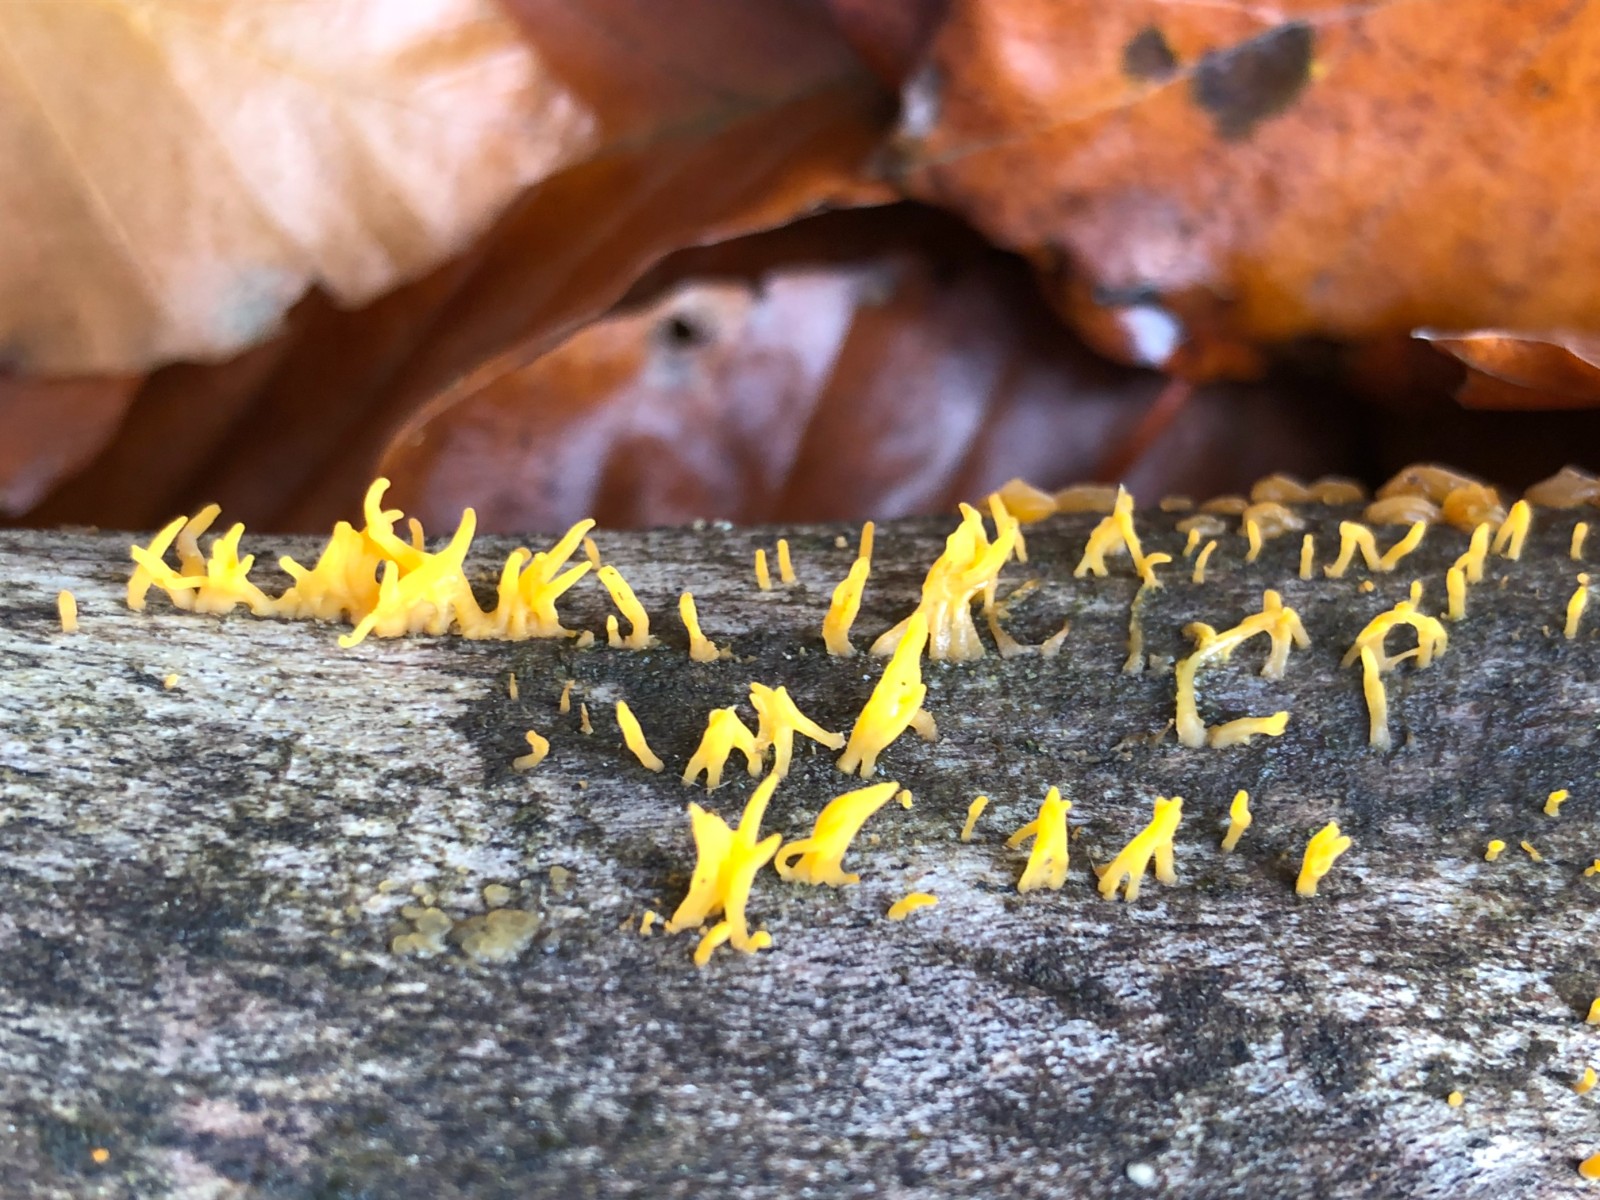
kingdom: Fungi
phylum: Basidiomycota
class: Dacrymycetes
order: Dacrymycetales
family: Dacrymycetaceae
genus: Calocera
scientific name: Calocera cornea
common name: liden guldgaffel
